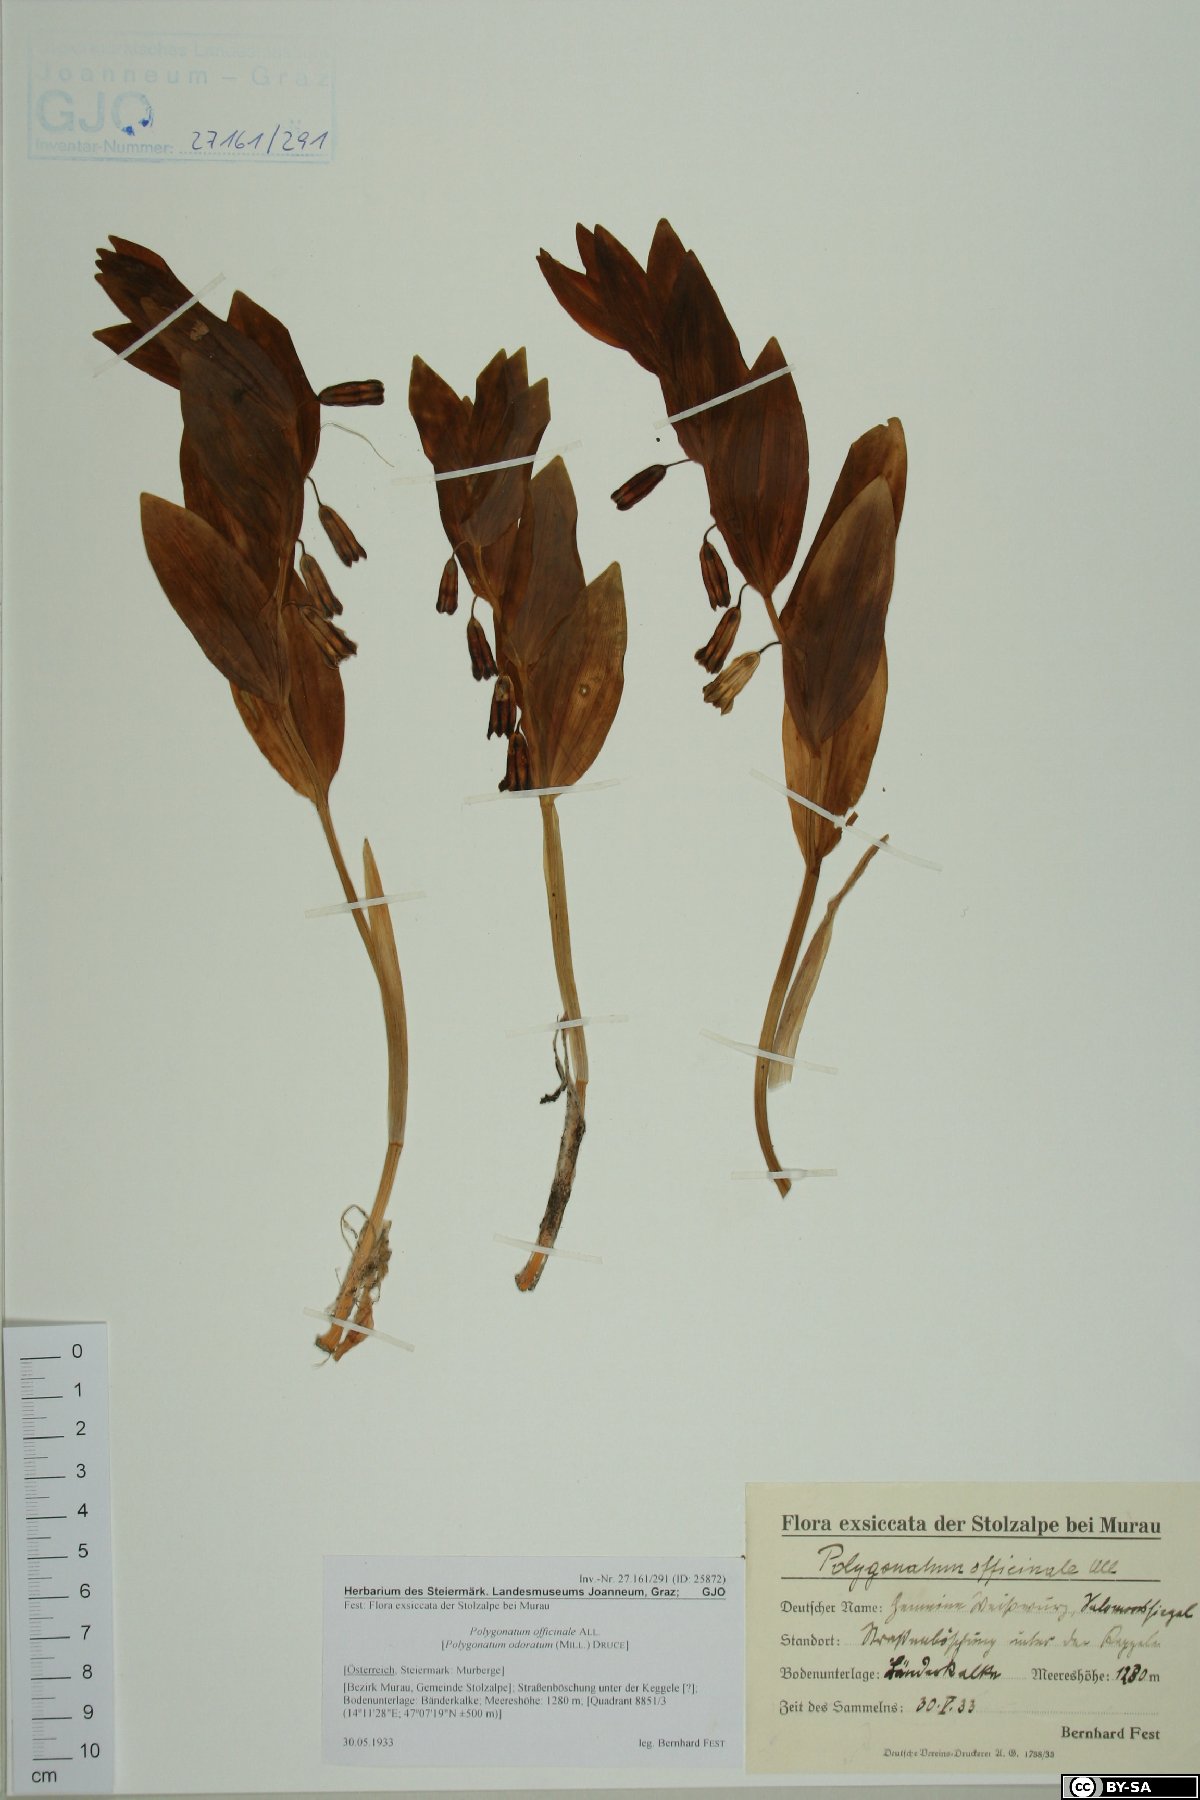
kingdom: Plantae
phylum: Tracheophyta
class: Liliopsida
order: Asparagales
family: Asparagaceae
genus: Polygonatum
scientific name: Polygonatum odoratum
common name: Angular solomon's-seal
